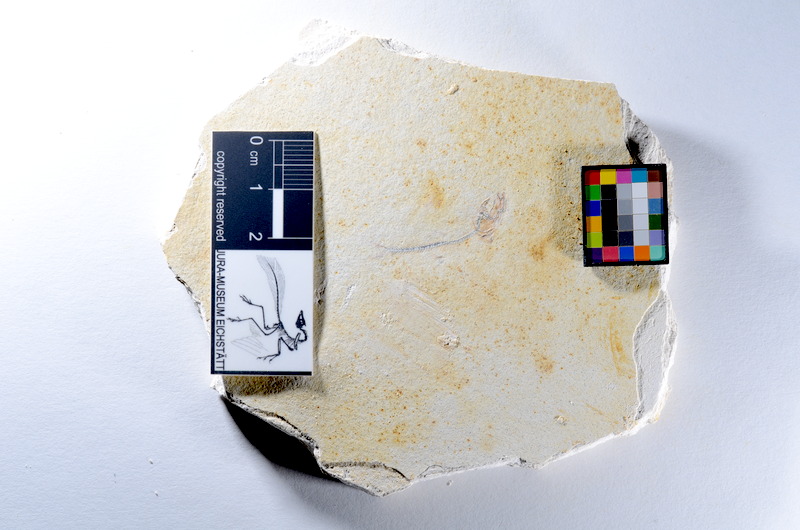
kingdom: Animalia
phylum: Chordata
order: Salmoniformes
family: Orthogonikleithridae
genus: Orthogonikleithrus
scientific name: Orthogonikleithrus hoelli
